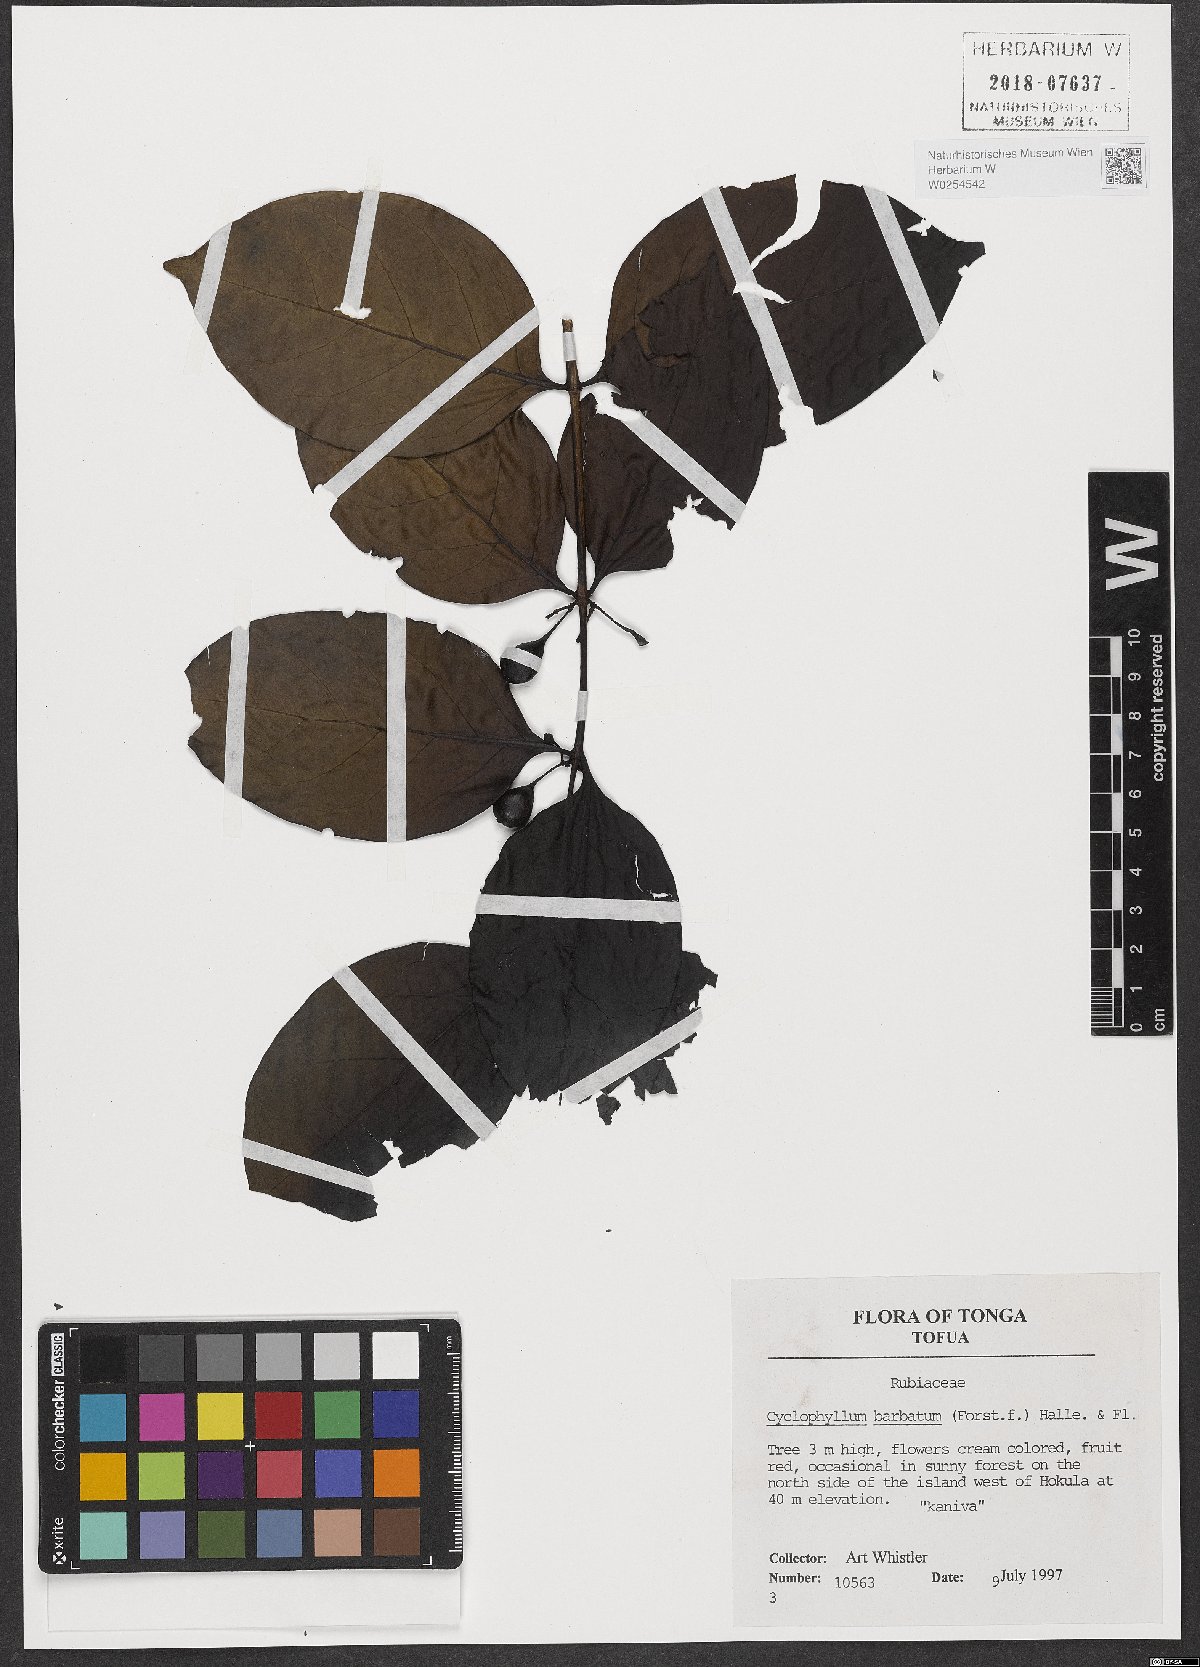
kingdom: Plantae
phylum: Tracheophyta
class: Magnoliopsida
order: Gentianales
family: Rubiaceae
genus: Cyclophyllum
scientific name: Cyclophyllum barbatum
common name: Cyclophyllum
